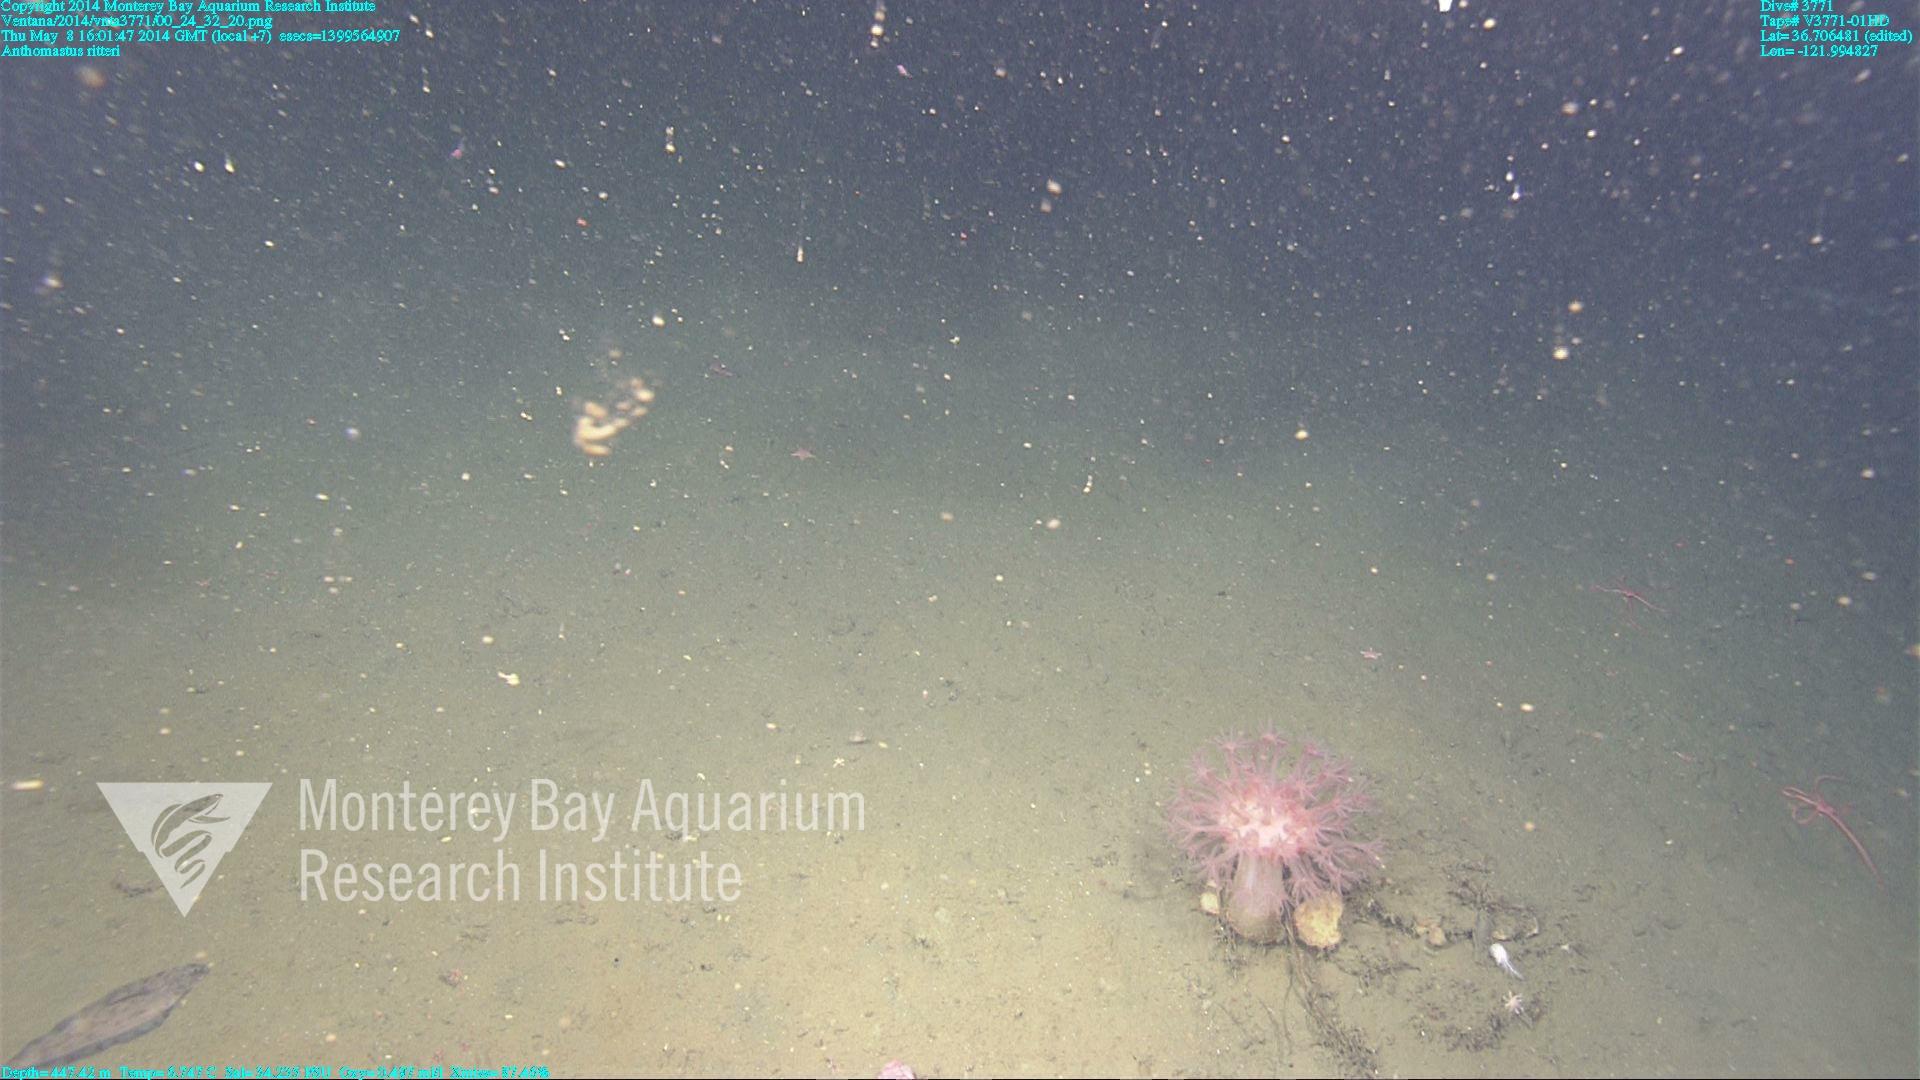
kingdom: Animalia
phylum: Cnidaria
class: Anthozoa
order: Scleralcyonacea
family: Coralliidae
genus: Heteropolypus
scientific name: Heteropolypus ritteri
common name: Ritter's soft coral
